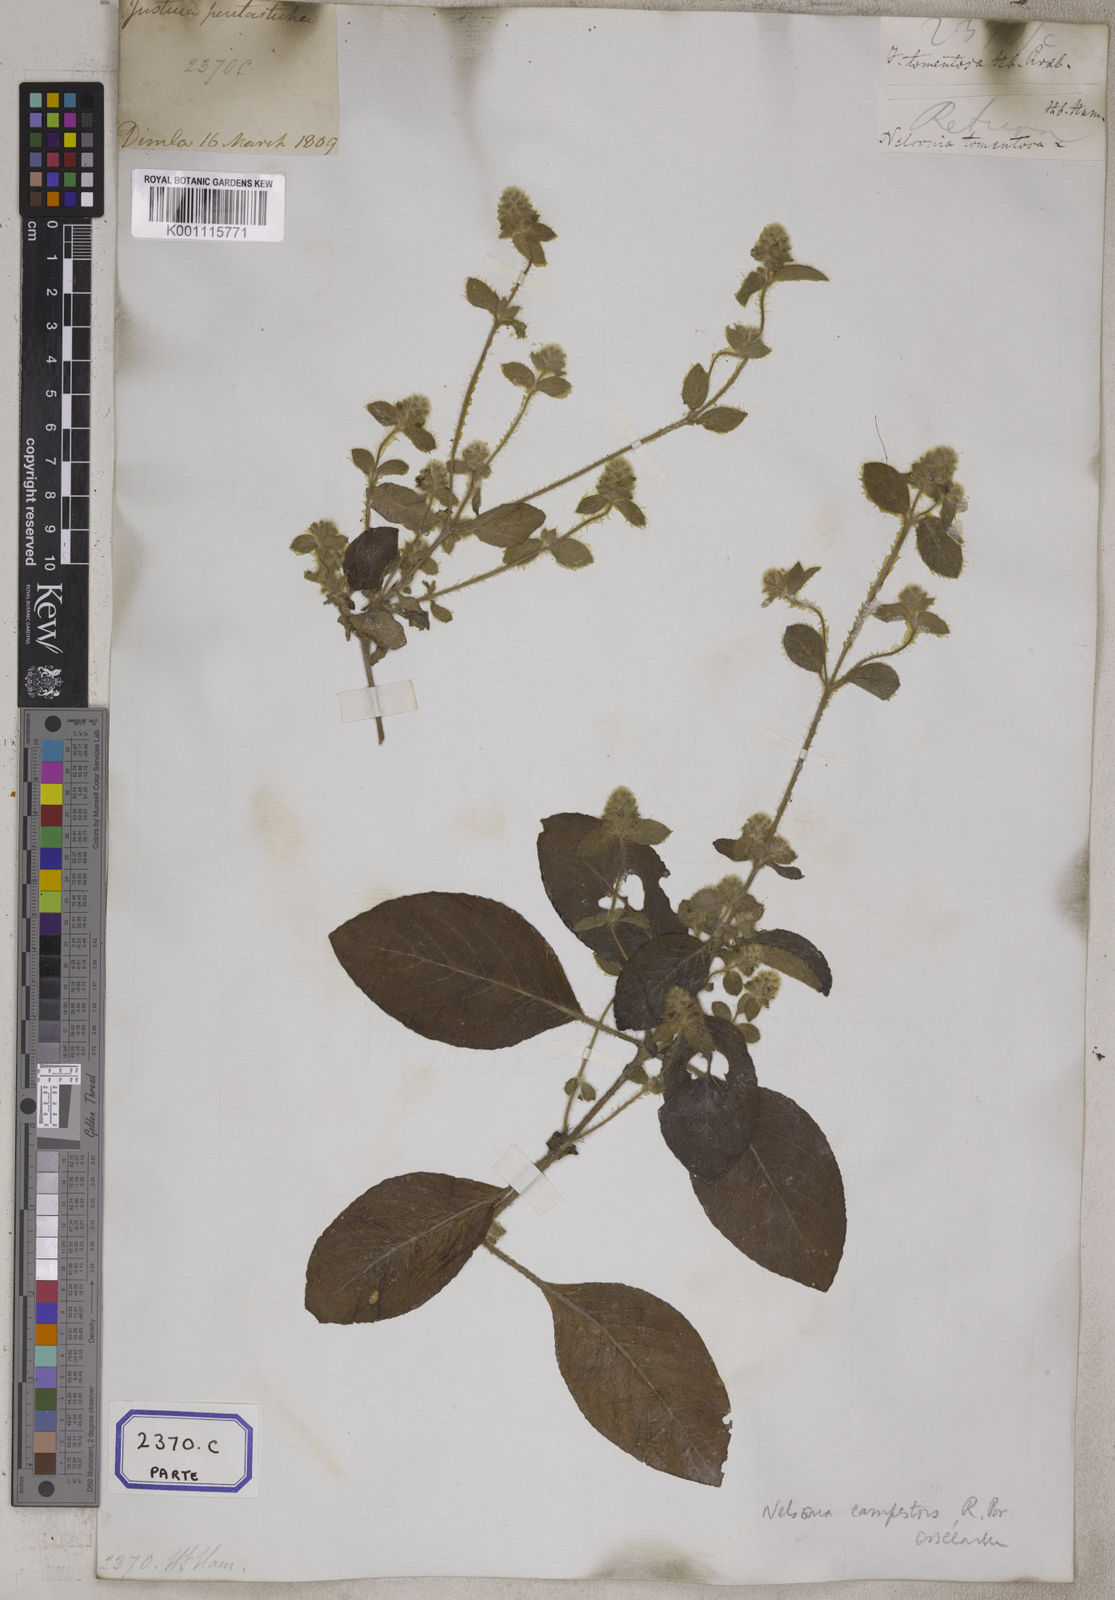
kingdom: Plantae
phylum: Tracheophyta
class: Magnoliopsida
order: Lamiales
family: Acanthaceae
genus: Nelsonia
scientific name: Nelsonia canescens
